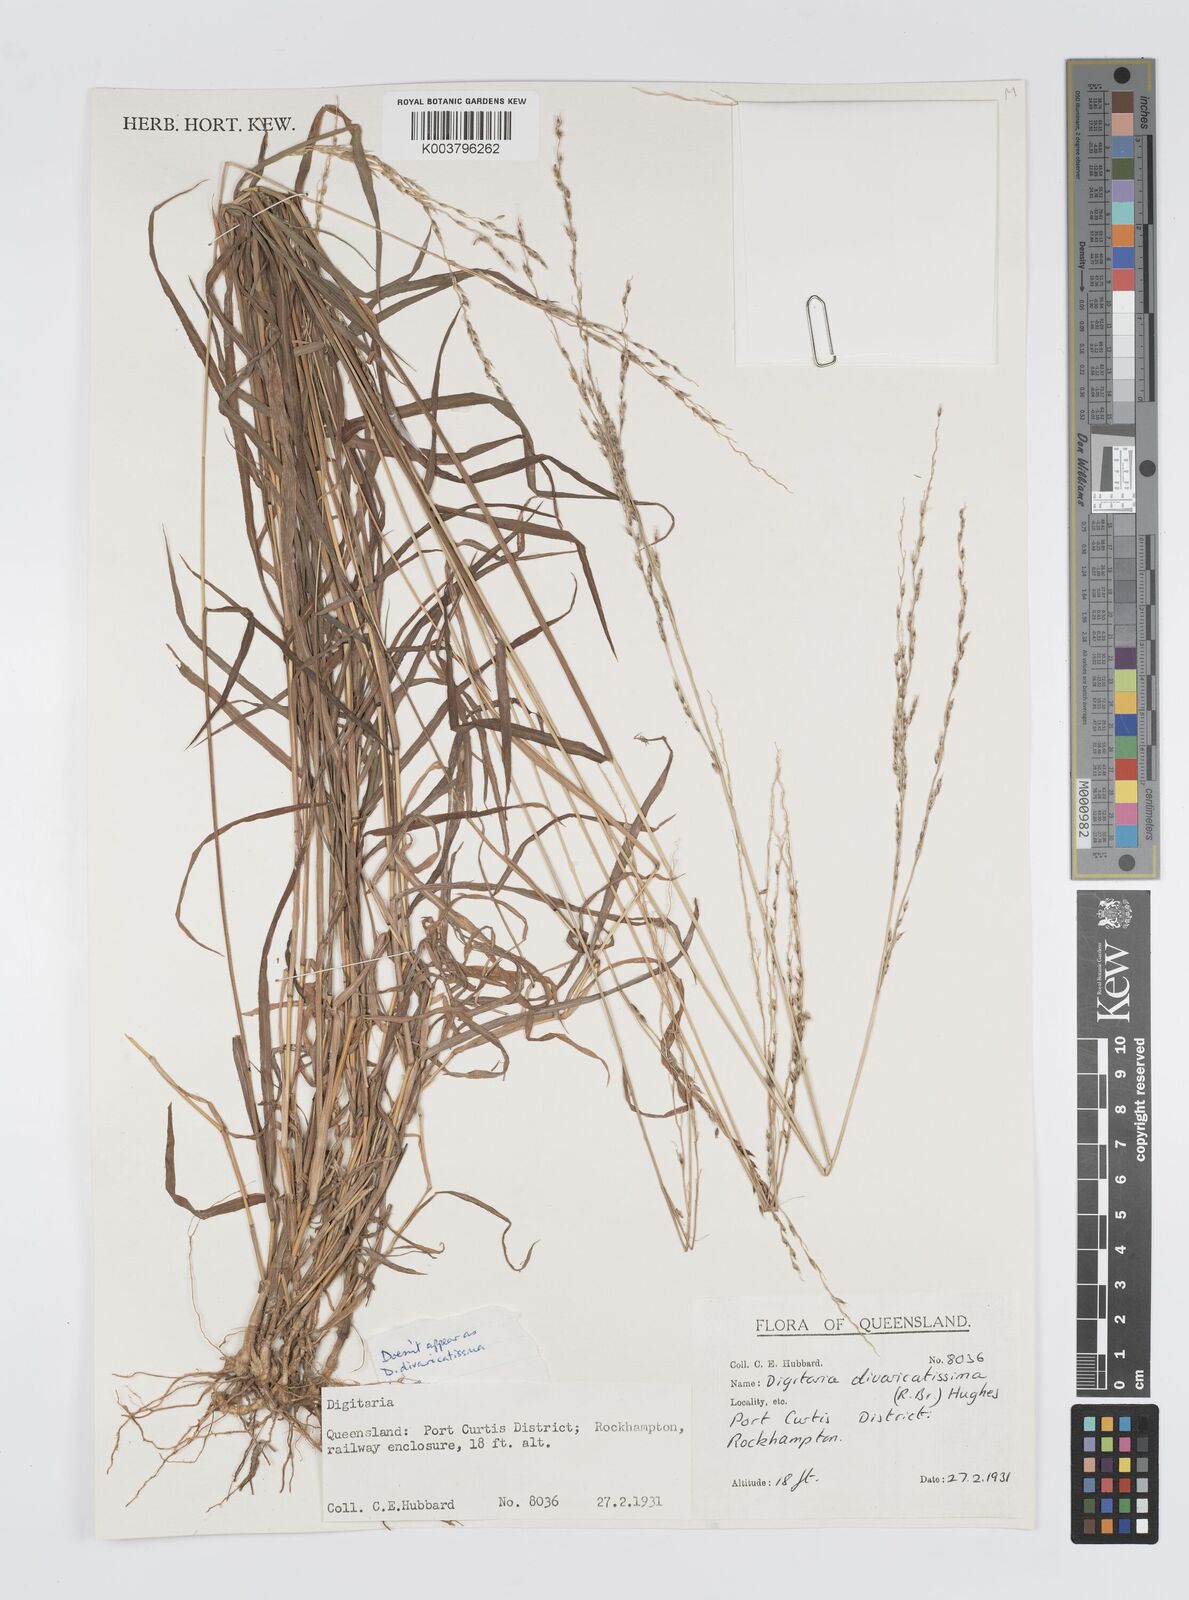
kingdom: Plantae
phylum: Tracheophyta
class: Liliopsida
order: Poales
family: Poaceae
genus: Digitaria
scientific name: Digitaria divaricatissima
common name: Crabgrass
